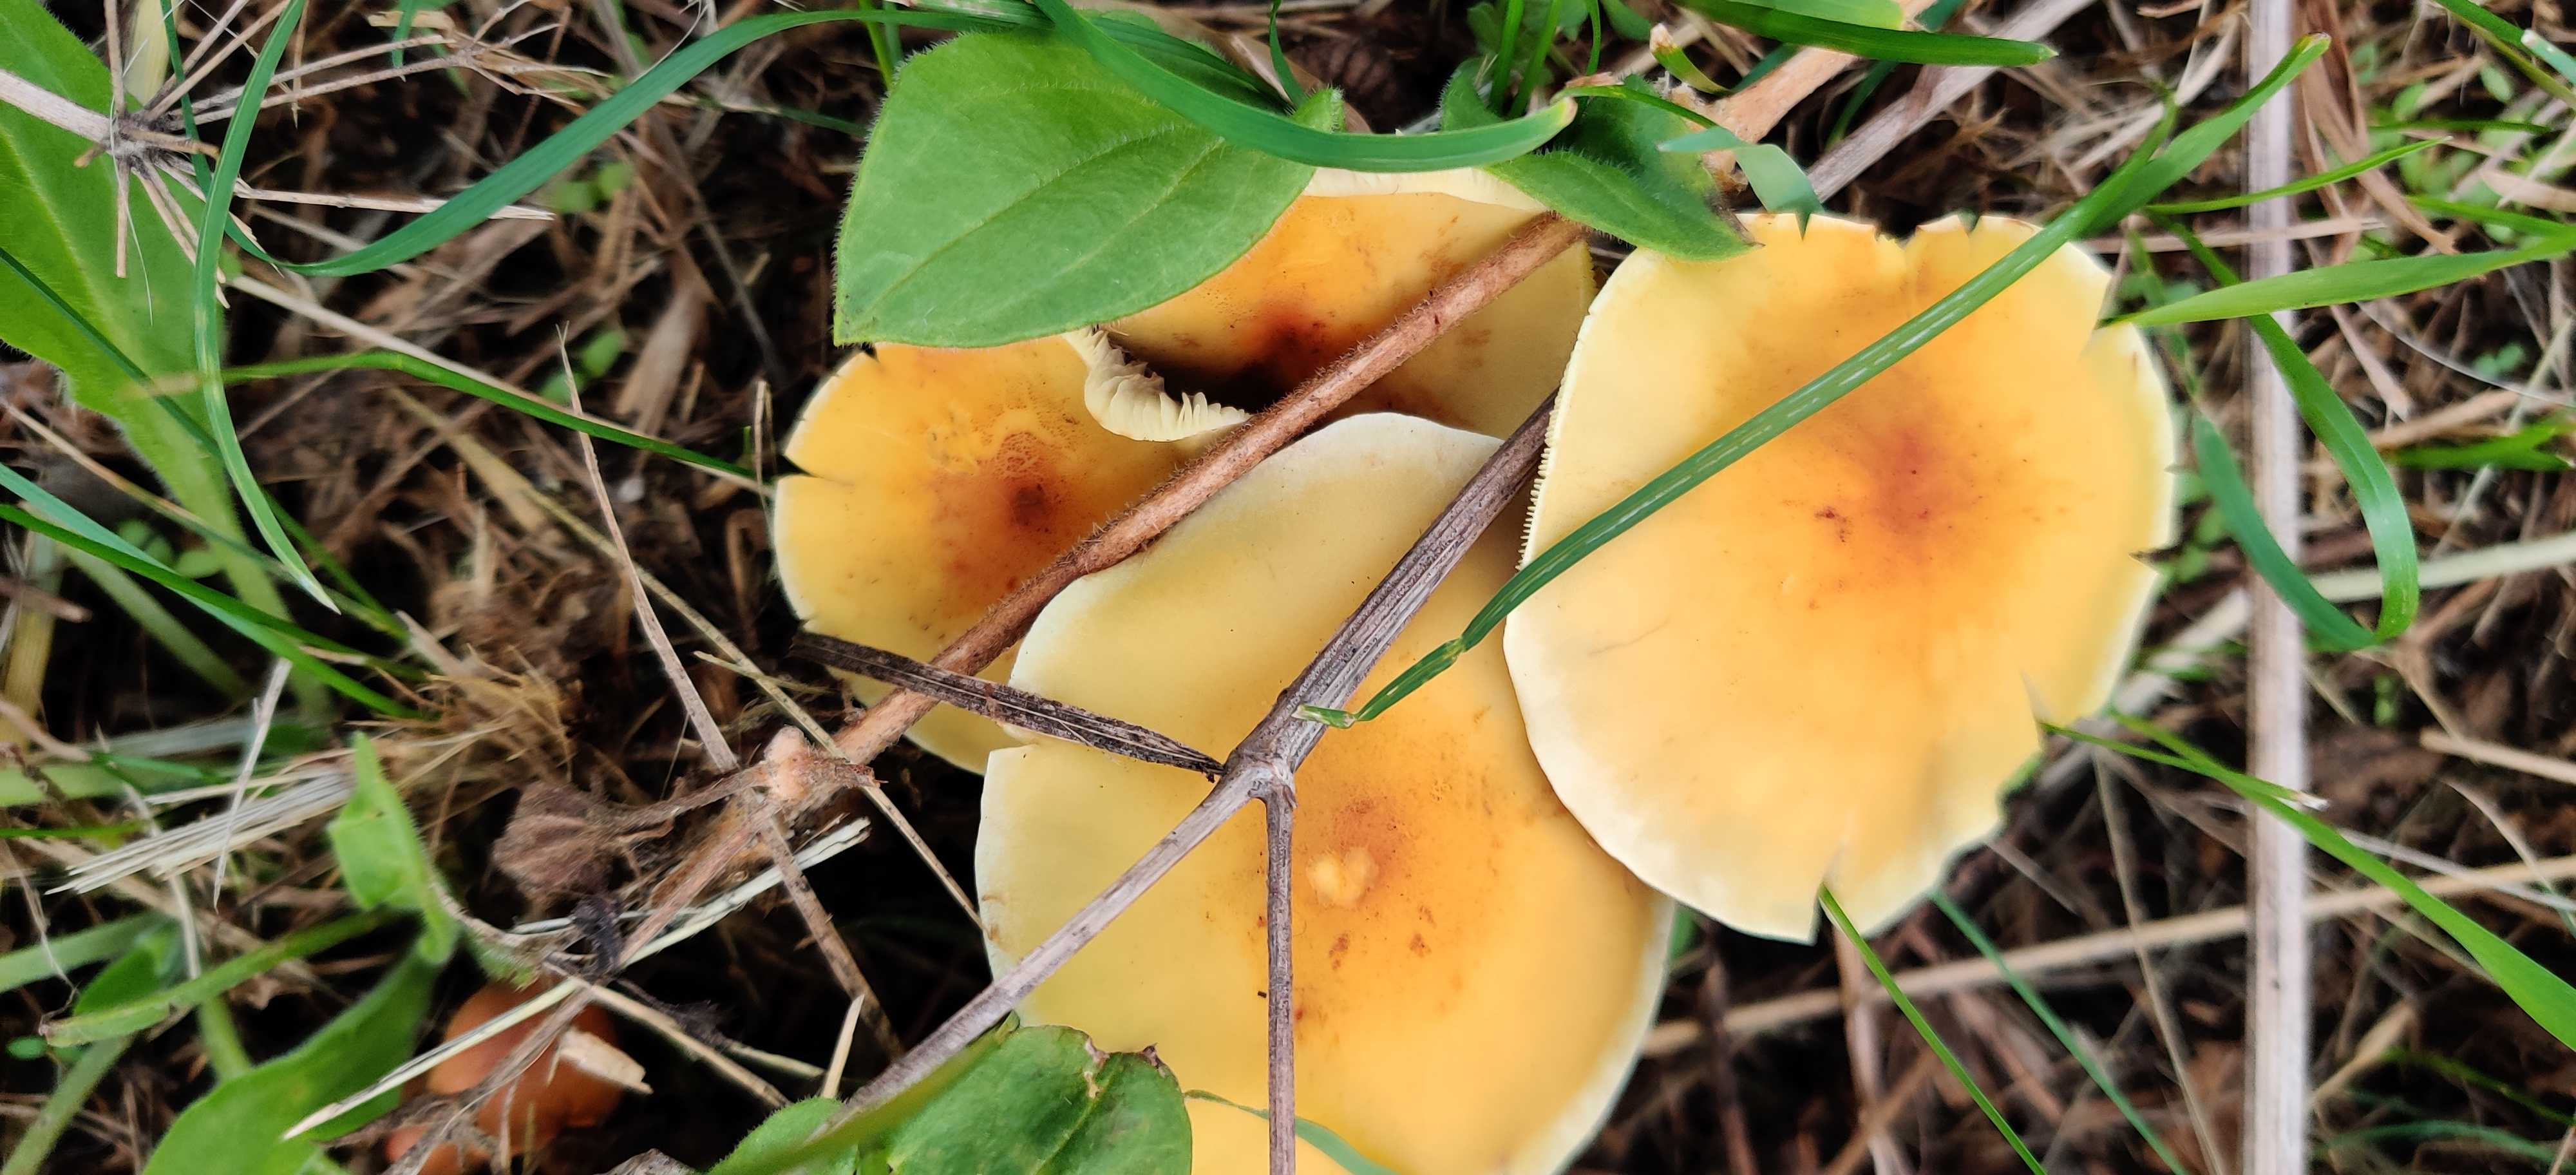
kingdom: Fungi
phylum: Basidiomycota
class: Agaricomycetes
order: Agaricales
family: Strophariaceae
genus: Hypholoma
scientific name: Hypholoma fasciculare
